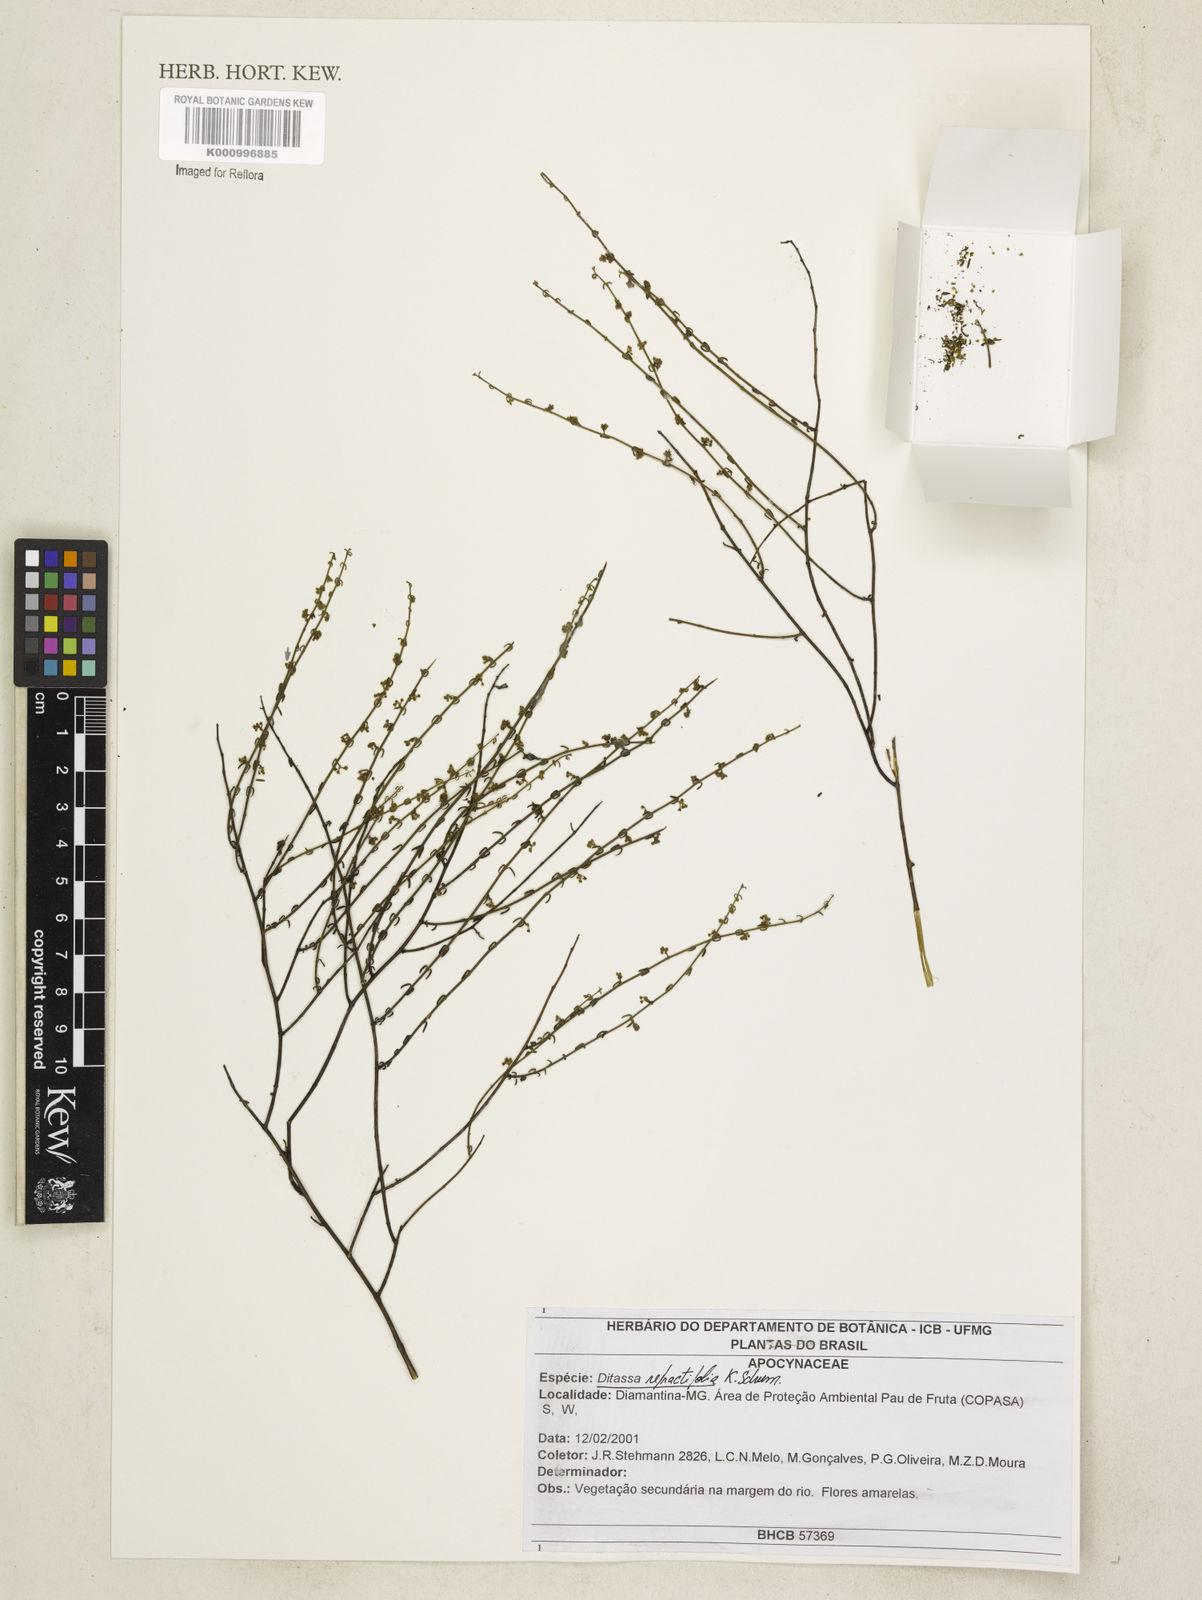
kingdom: Plantae
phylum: Tracheophyta
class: Magnoliopsida
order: Gentianales
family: Apocynaceae
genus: Minaria
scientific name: Minaria refractifolia
